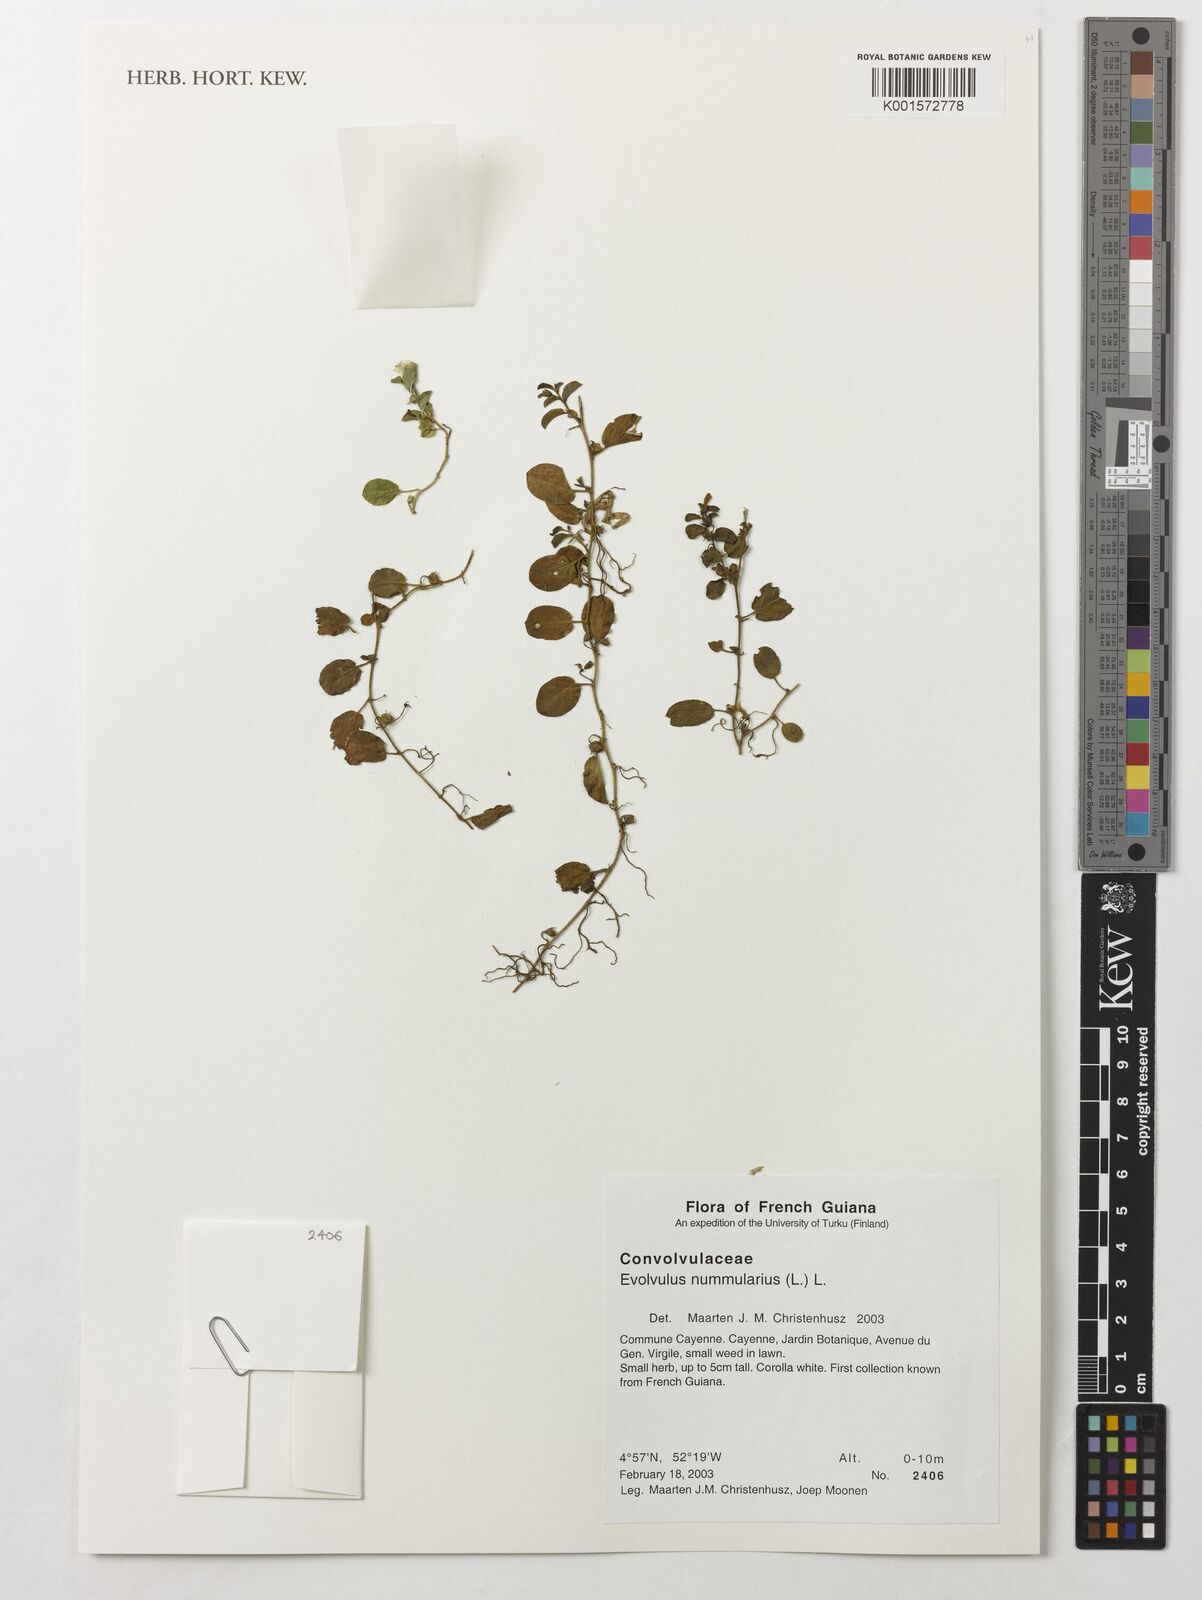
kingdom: Plantae
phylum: Tracheophyta
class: Magnoliopsida
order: Solanales
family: Convolvulaceae
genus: Evolvulus
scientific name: Evolvulus nummularius
